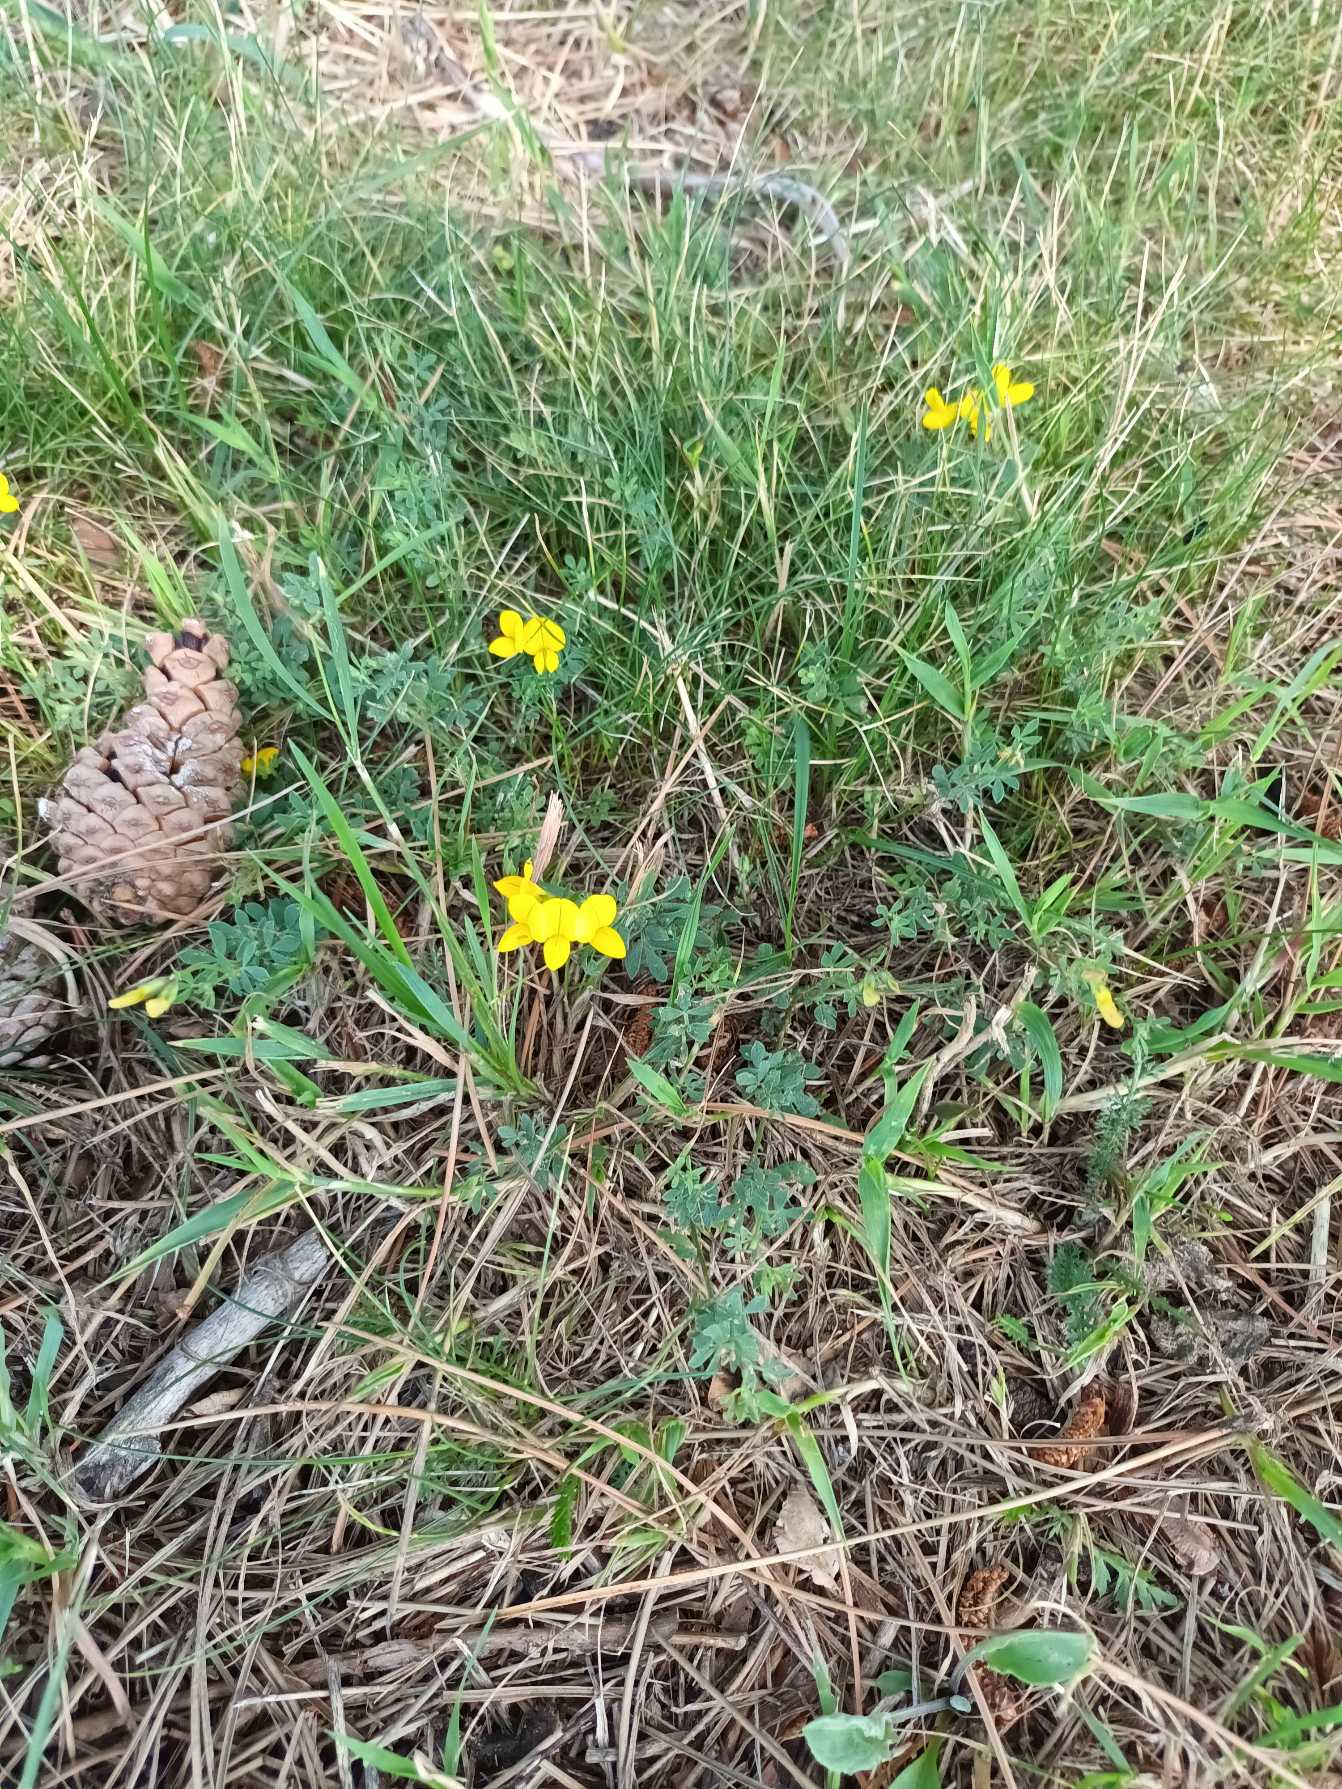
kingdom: Plantae
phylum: Tracheophyta
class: Magnoliopsida
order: Fabales
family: Fabaceae
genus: Lotus
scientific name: Lotus corniculatus
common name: Almindelig kællingetand
